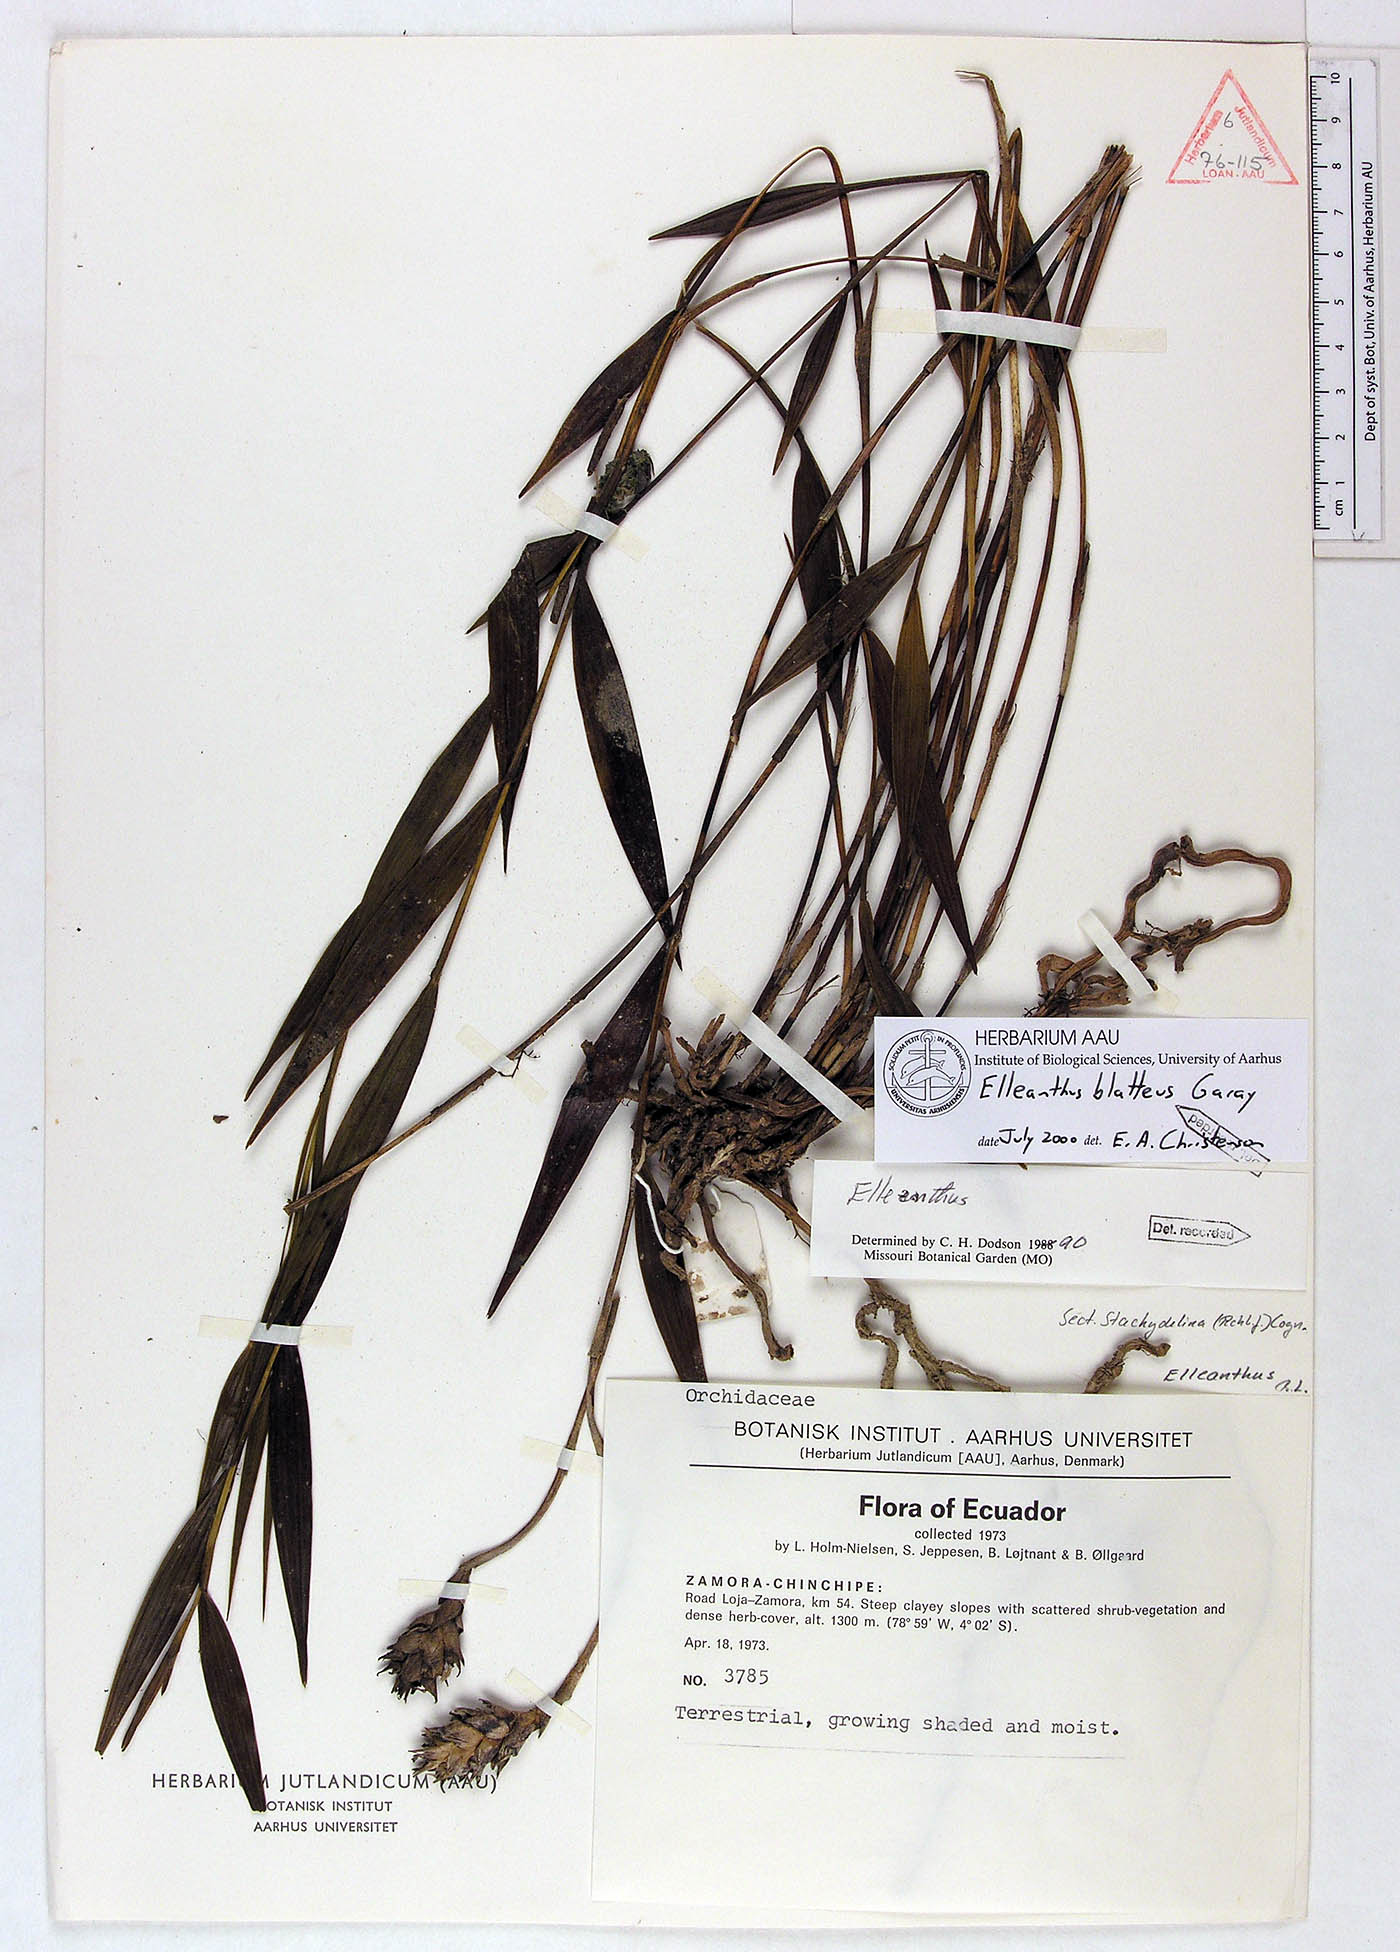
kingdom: Plantae
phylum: Tracheophyta
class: Liliopsida
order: Asparagales
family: Orchidaceae
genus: Elleanthus
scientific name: Elleanthus blatteus
